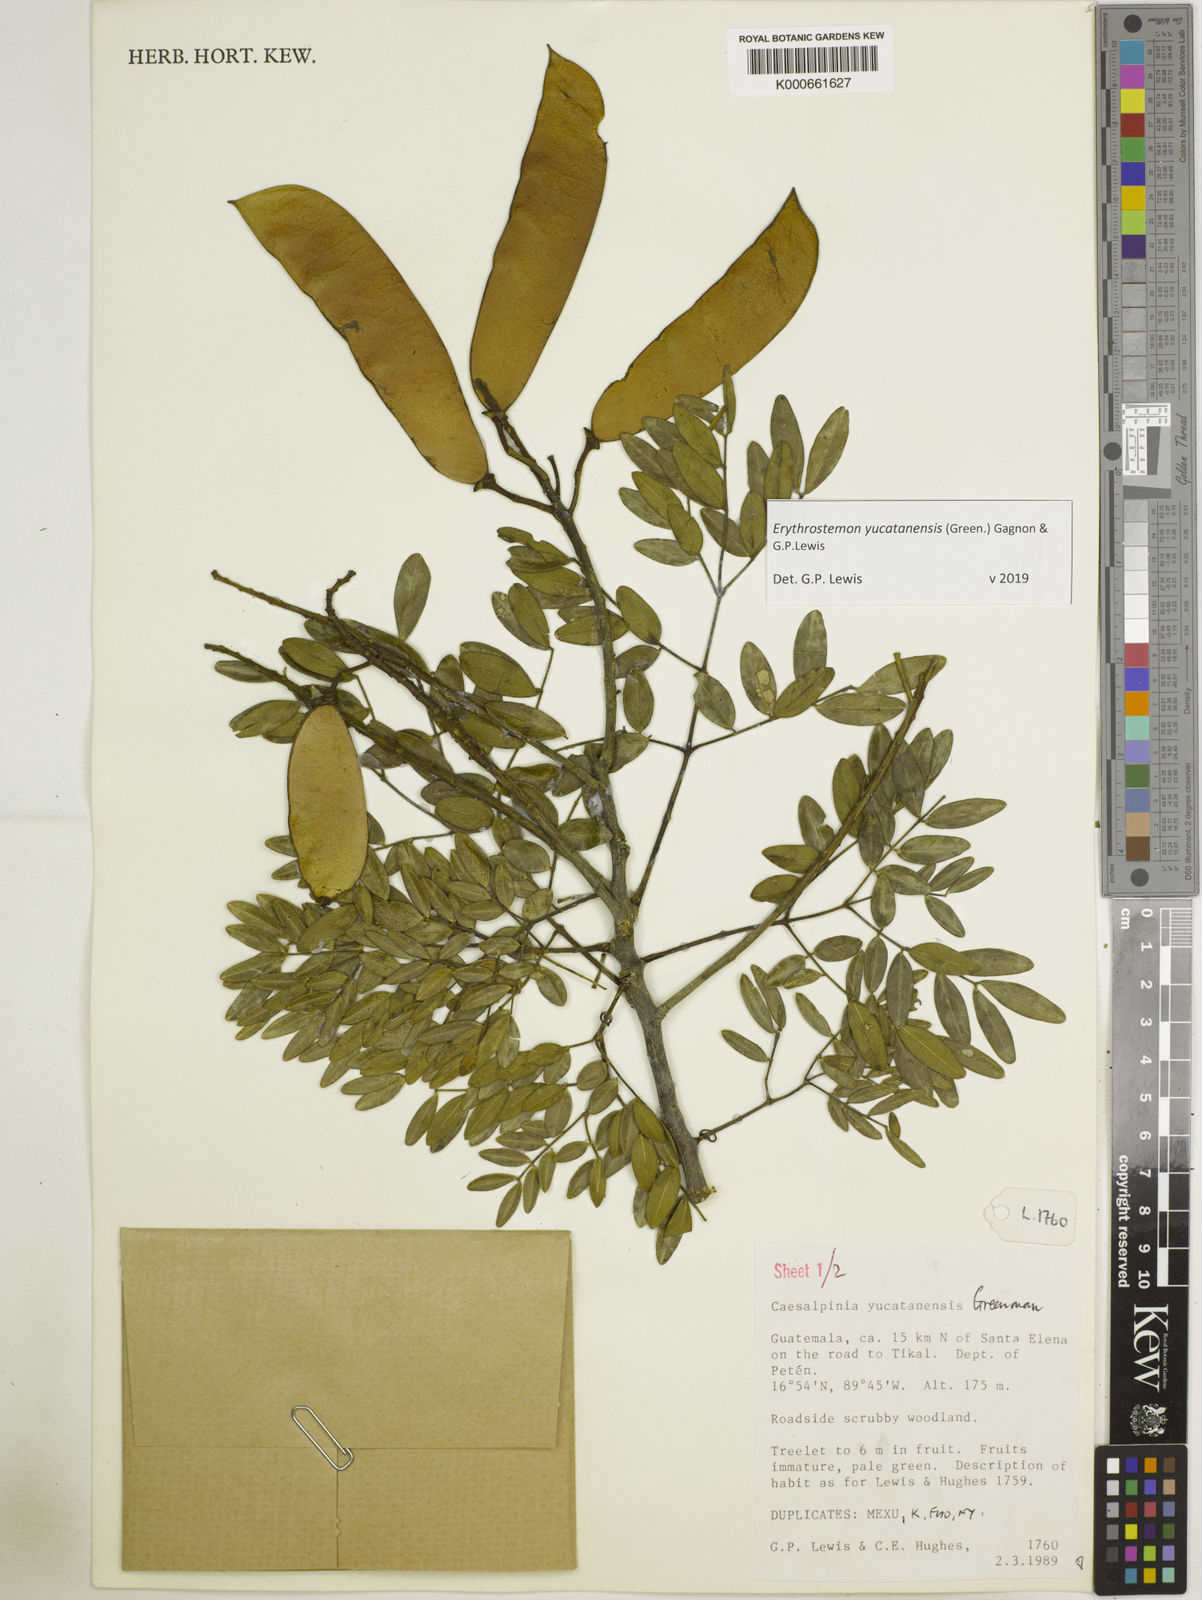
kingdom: Plantae
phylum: Tracheophyta
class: Magnoliopsida
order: Fabales
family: Fabaceae
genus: Caesalpinia
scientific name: Caesalpinia
